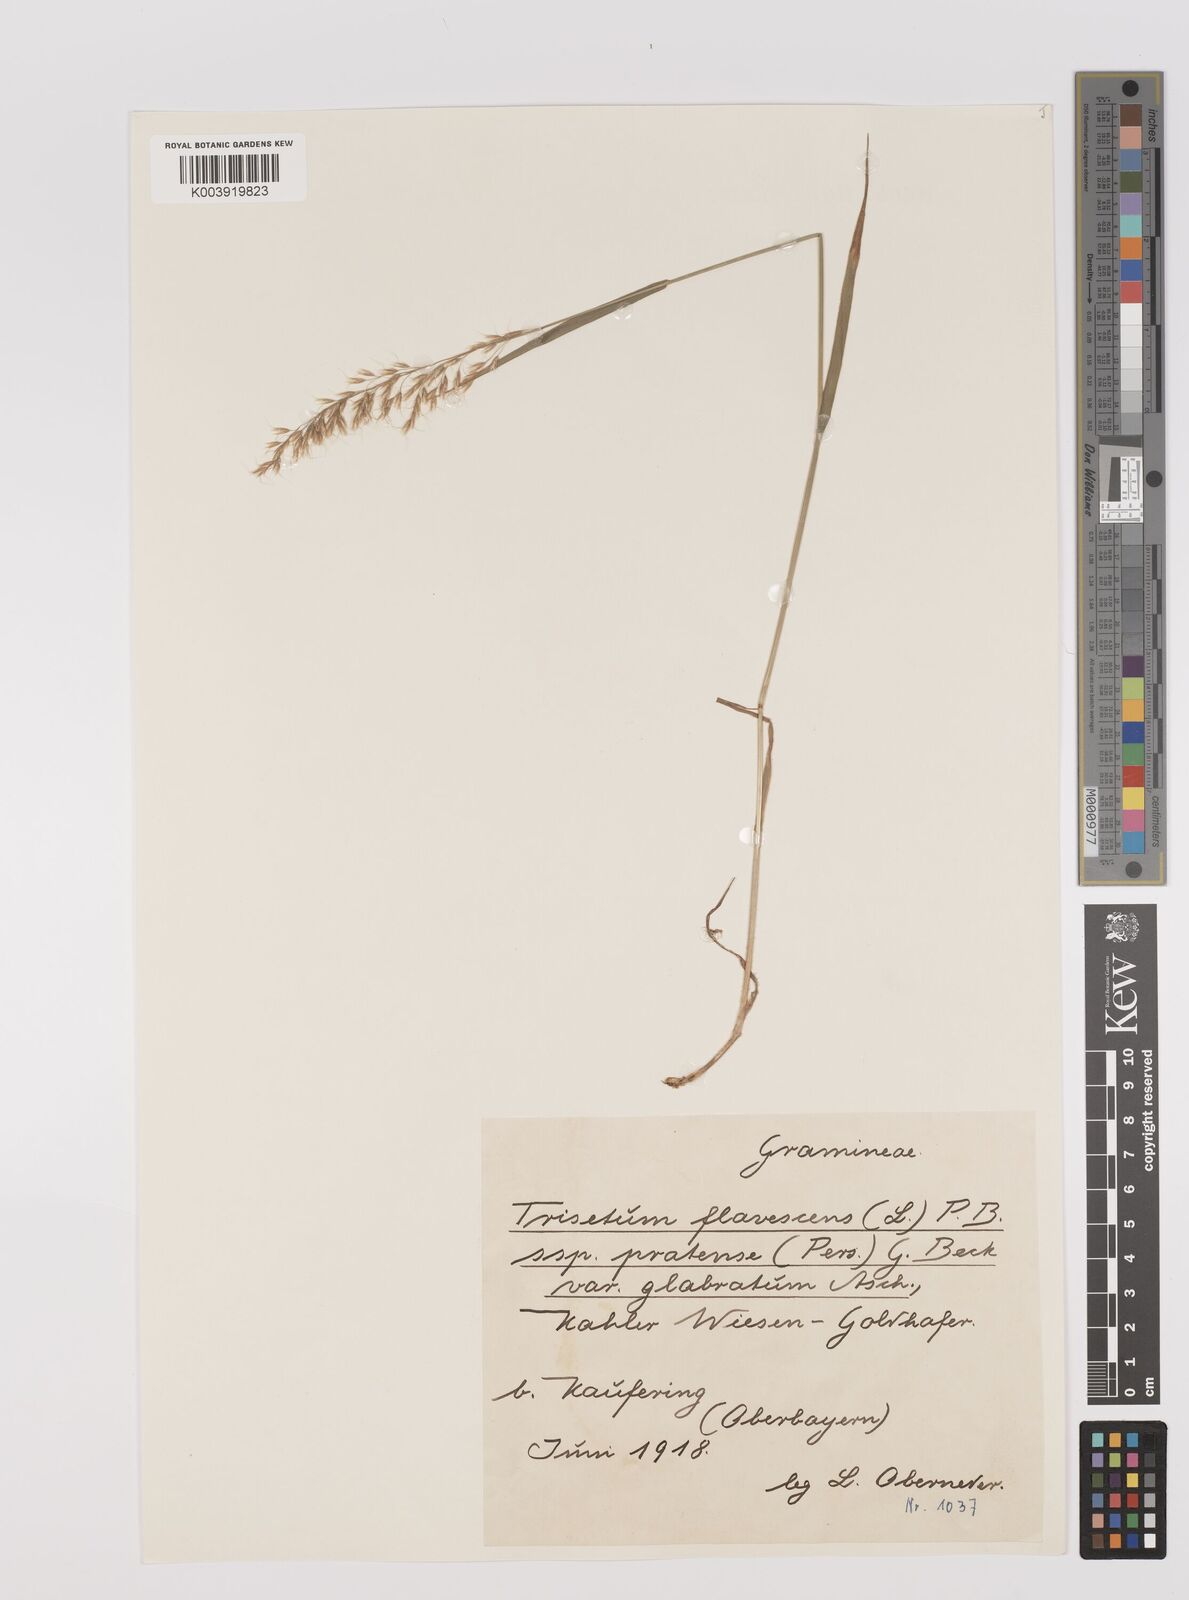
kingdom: Plantae
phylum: Tracheophyta
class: Liliopsida
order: Poales
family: Poaceae
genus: Trisetum
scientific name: Trisetum flavescens
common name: Yellow oat-grass
